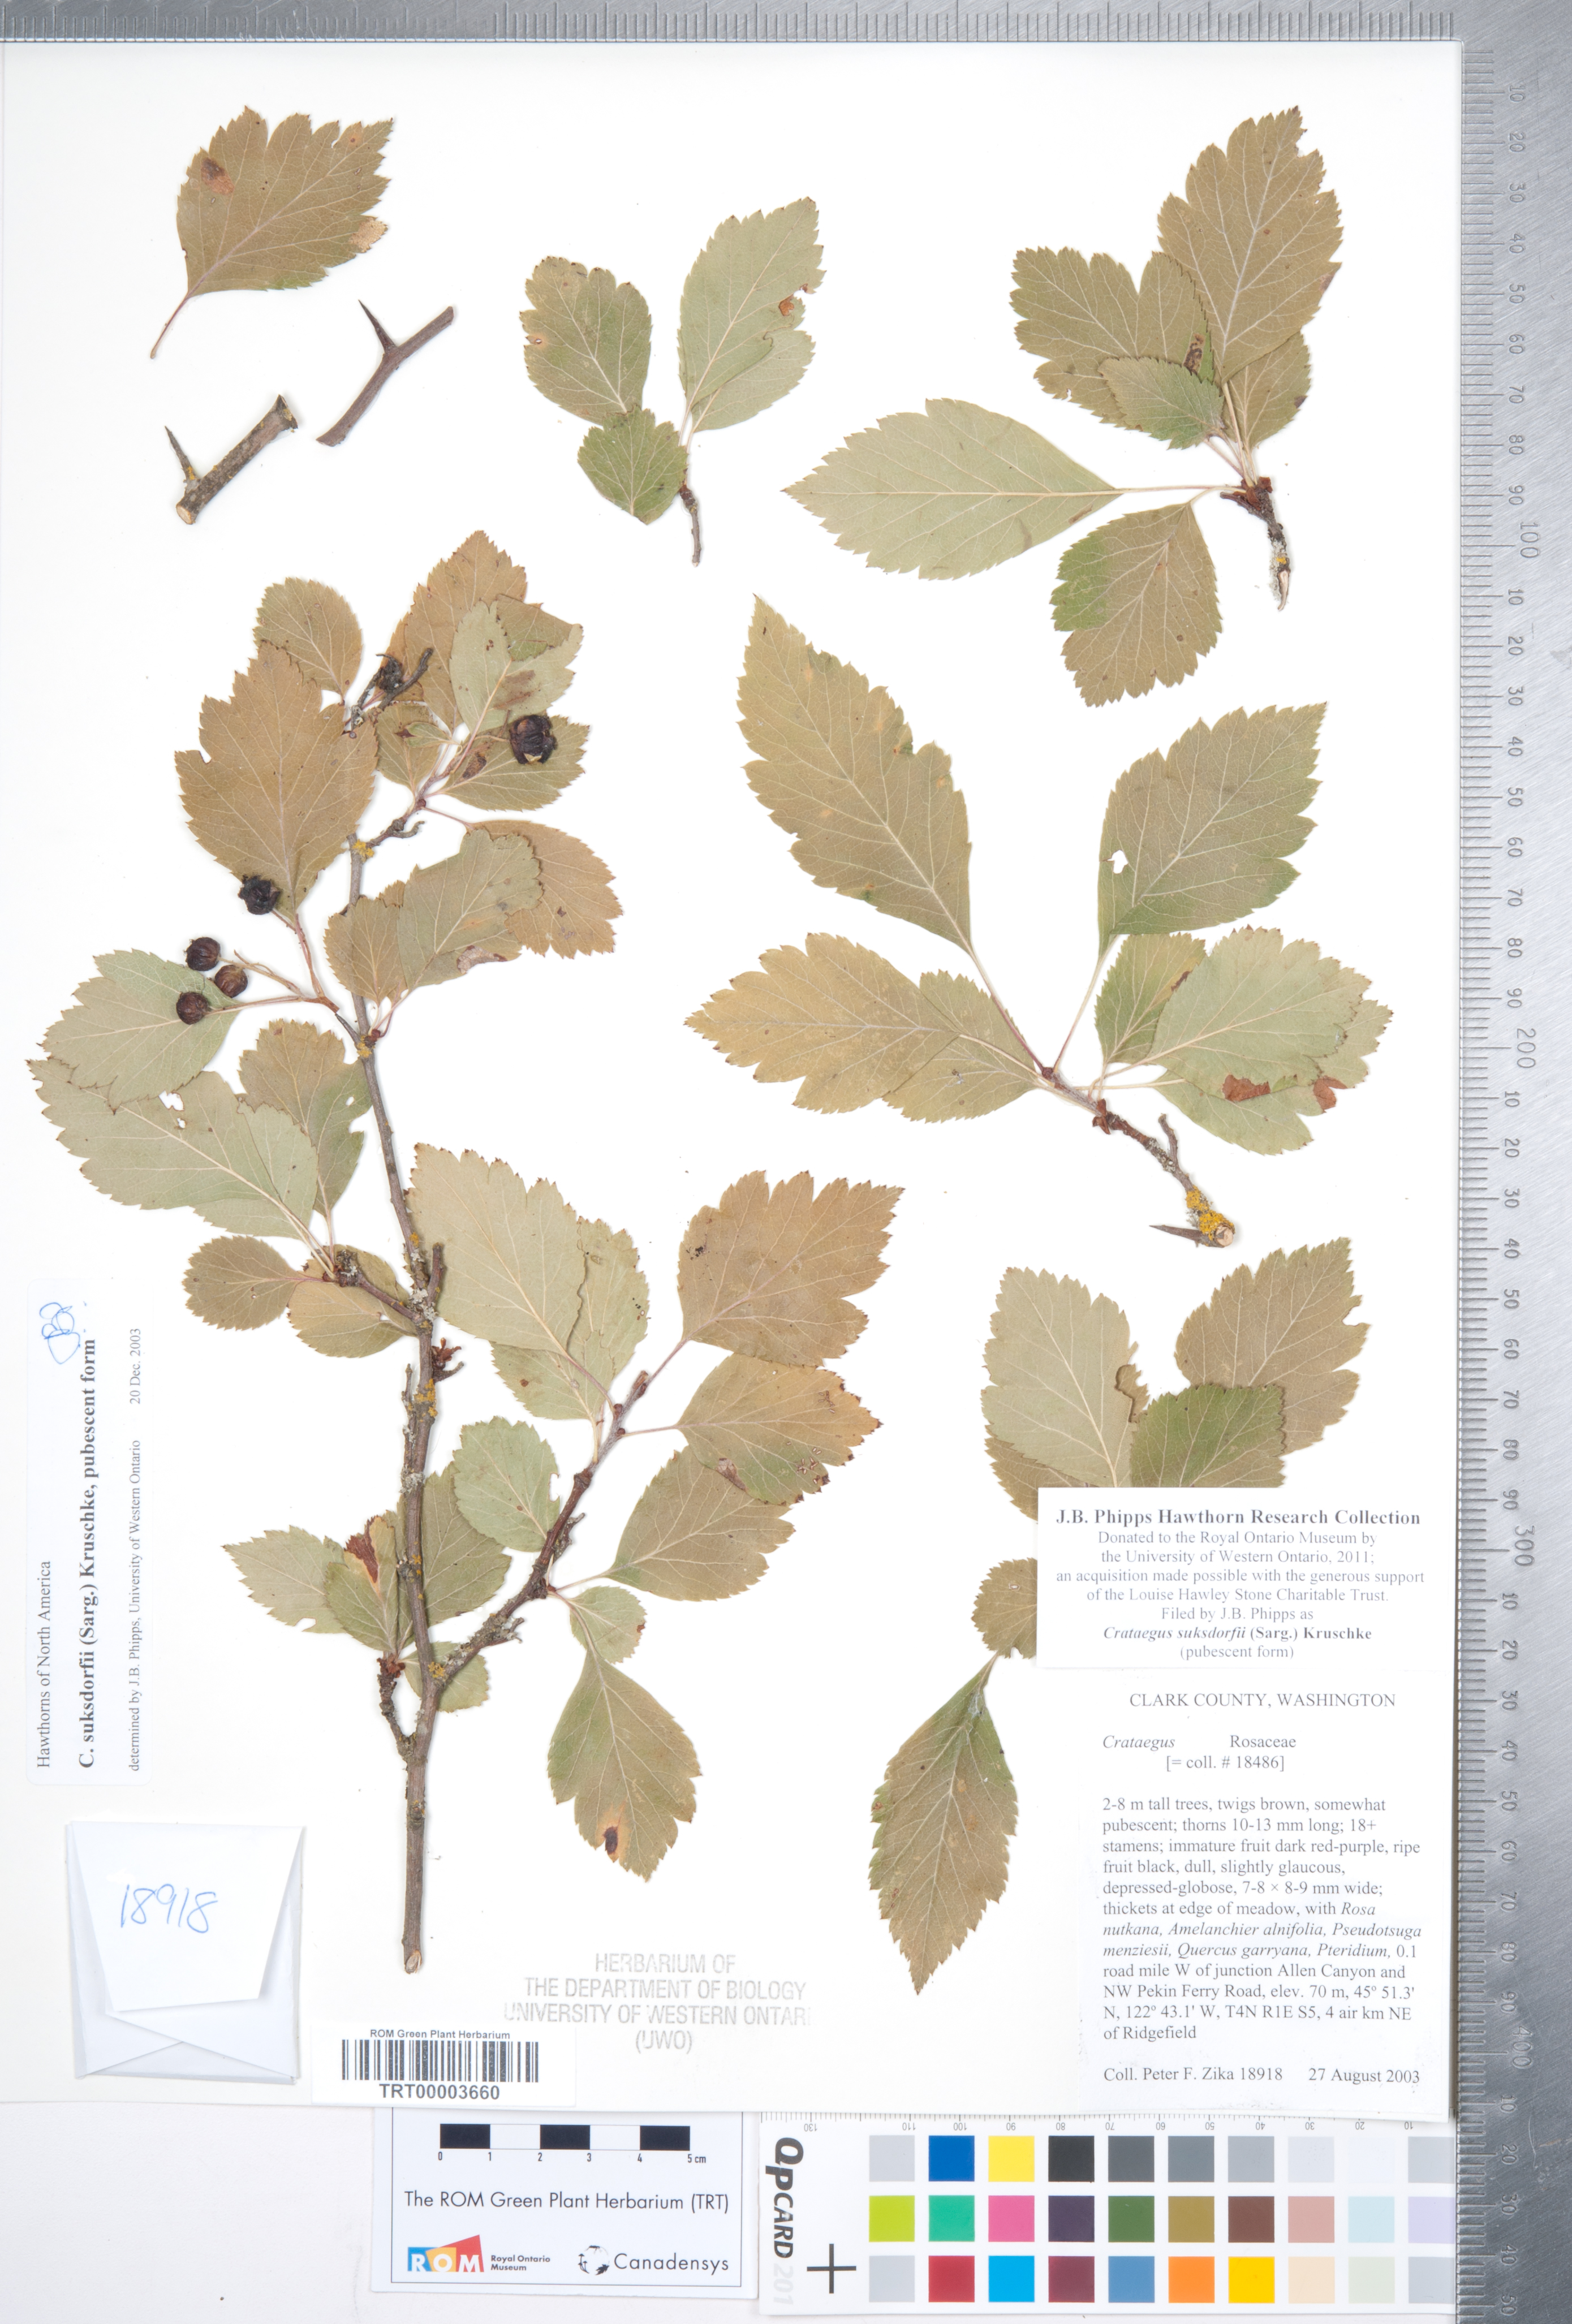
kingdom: Plantae
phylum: Tracheophyta
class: Magnoliopsida
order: Rosales
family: Rosaceae
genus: Crataegus
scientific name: Crataegus gaylussacia
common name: Huckleberry hawthorn
